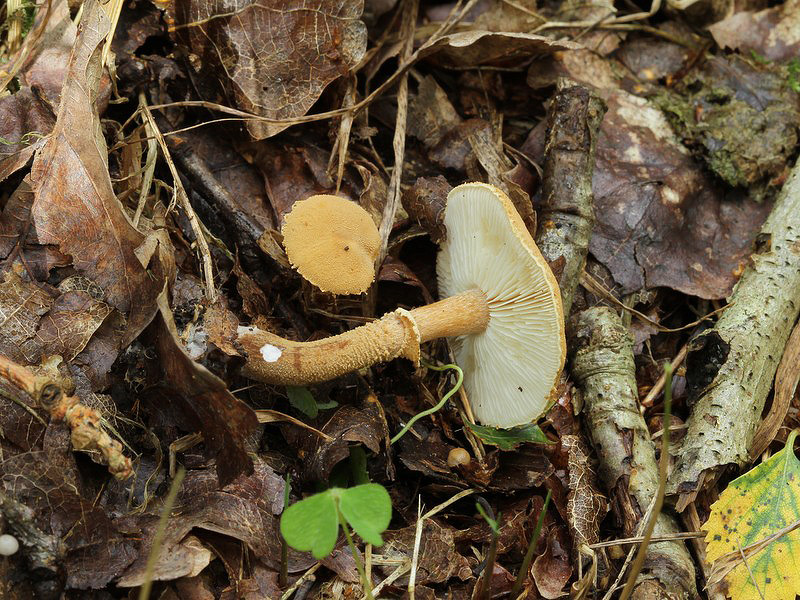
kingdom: Fungi
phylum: Basidiomycota
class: Agaricomycetes
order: Agaricales
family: Tricholomataceae
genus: Cystoderma
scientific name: Cystoderma amianthinum
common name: okkergul grynhat
